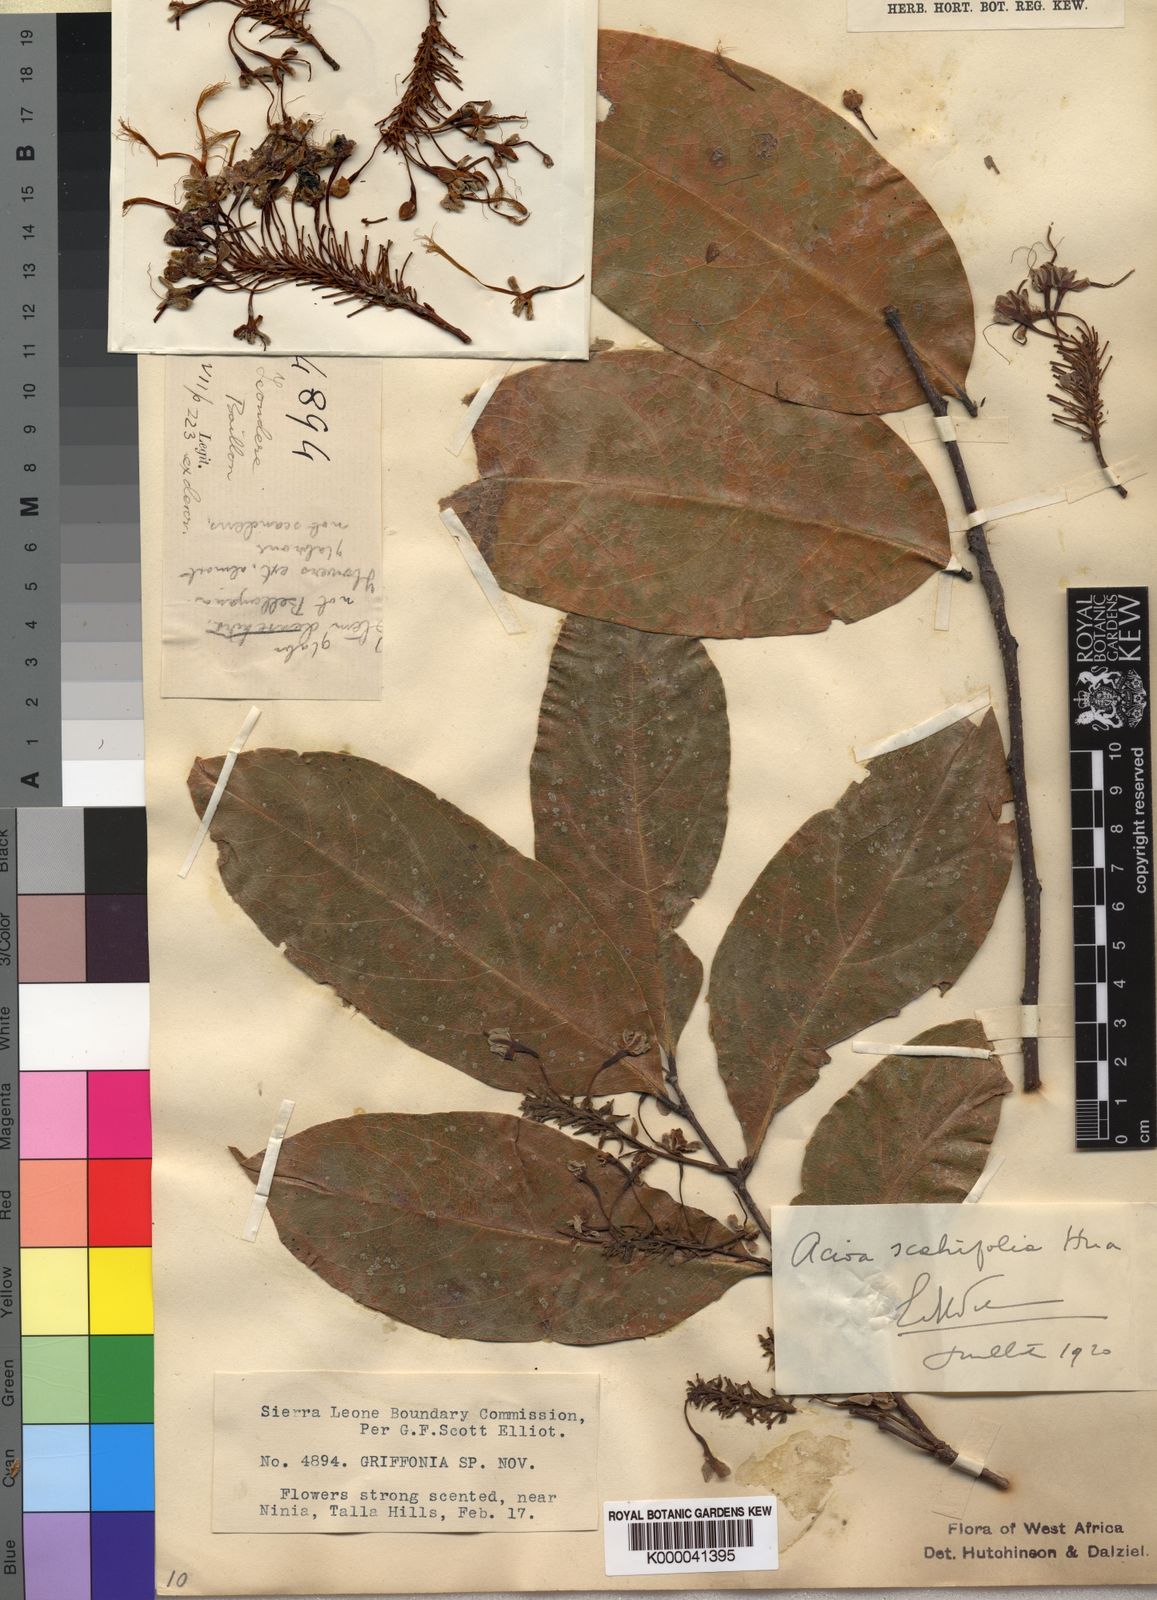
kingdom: Plantae
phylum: Tracheophyta
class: Magnoliopsida
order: Malpighiales
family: Chrysobalanaceae
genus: Dactyladenia
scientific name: Dactyladenia scabrifolia
